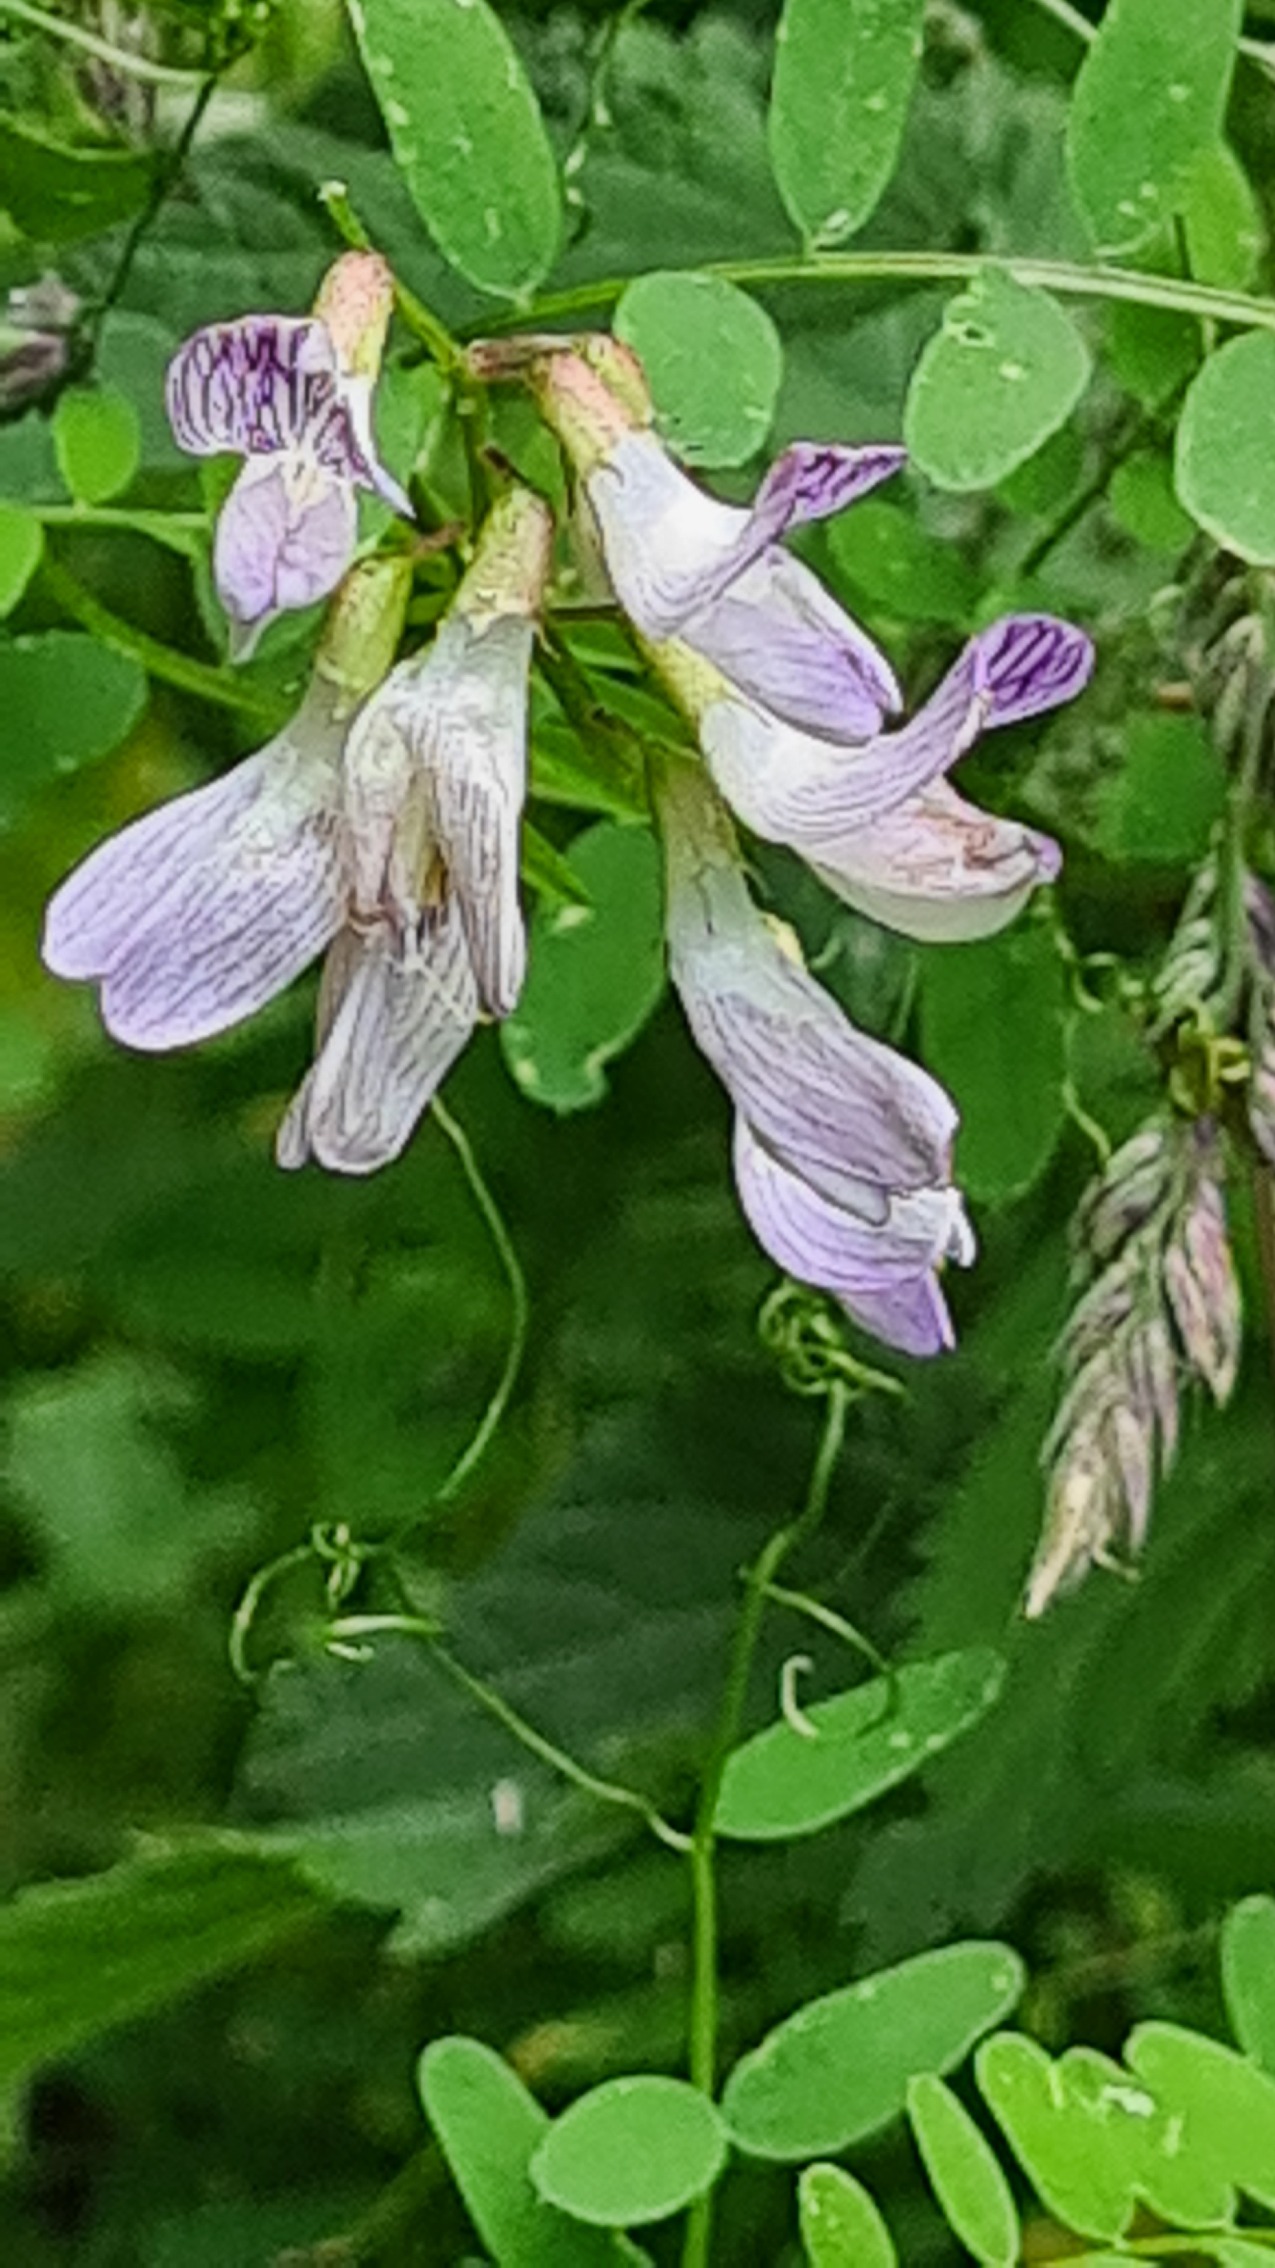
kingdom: Plantae
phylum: Tracheophyta
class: Magnoliopsida
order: Fabales
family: Fabaceae
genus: Vicia
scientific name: Vicia sylvatica
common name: Skov-vikke
